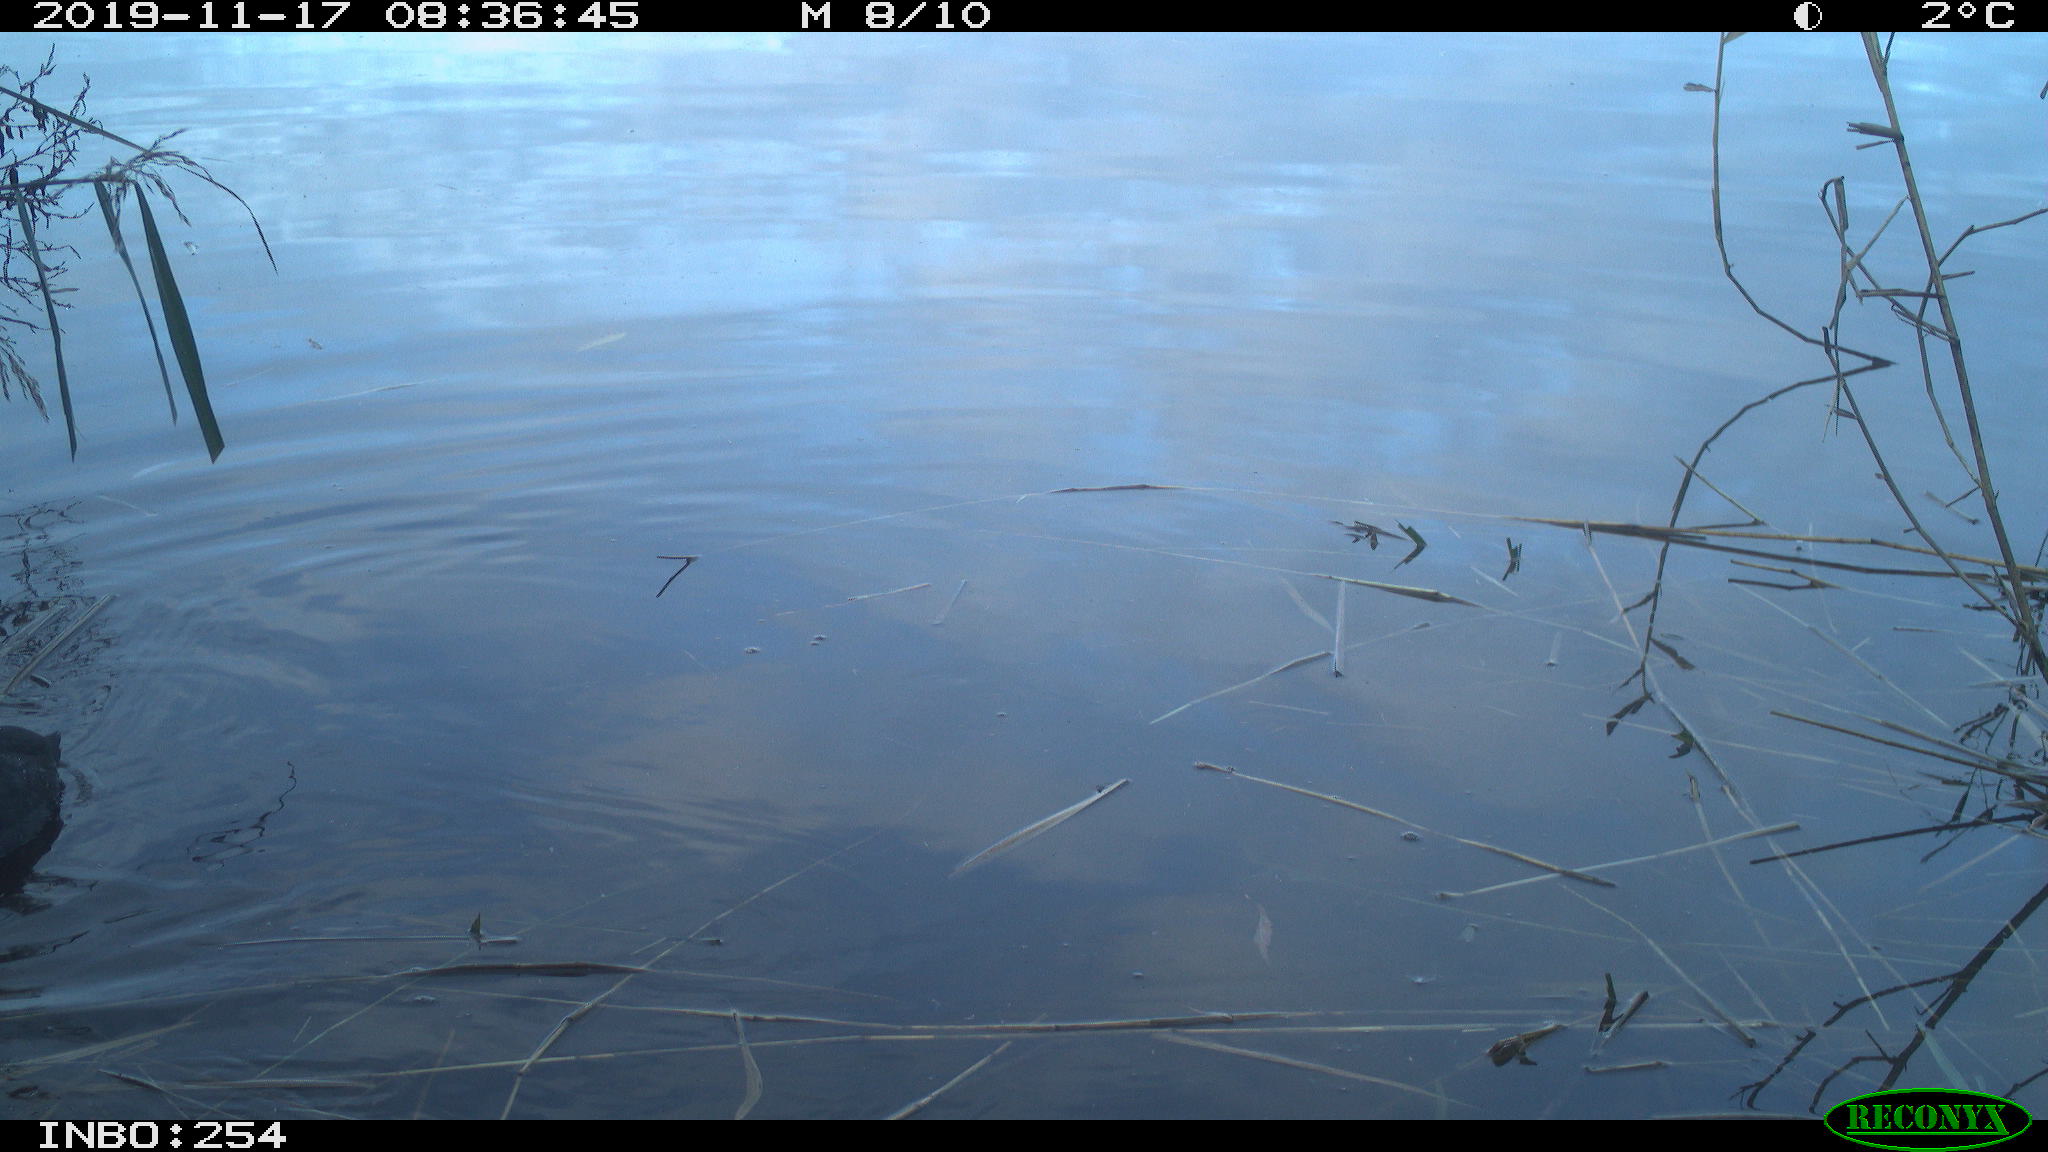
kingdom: Animalia
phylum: Chordata
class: Aves
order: Gruiformes
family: Rallidae
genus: Fulica
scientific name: Fulica atra
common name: Eurasian coot
